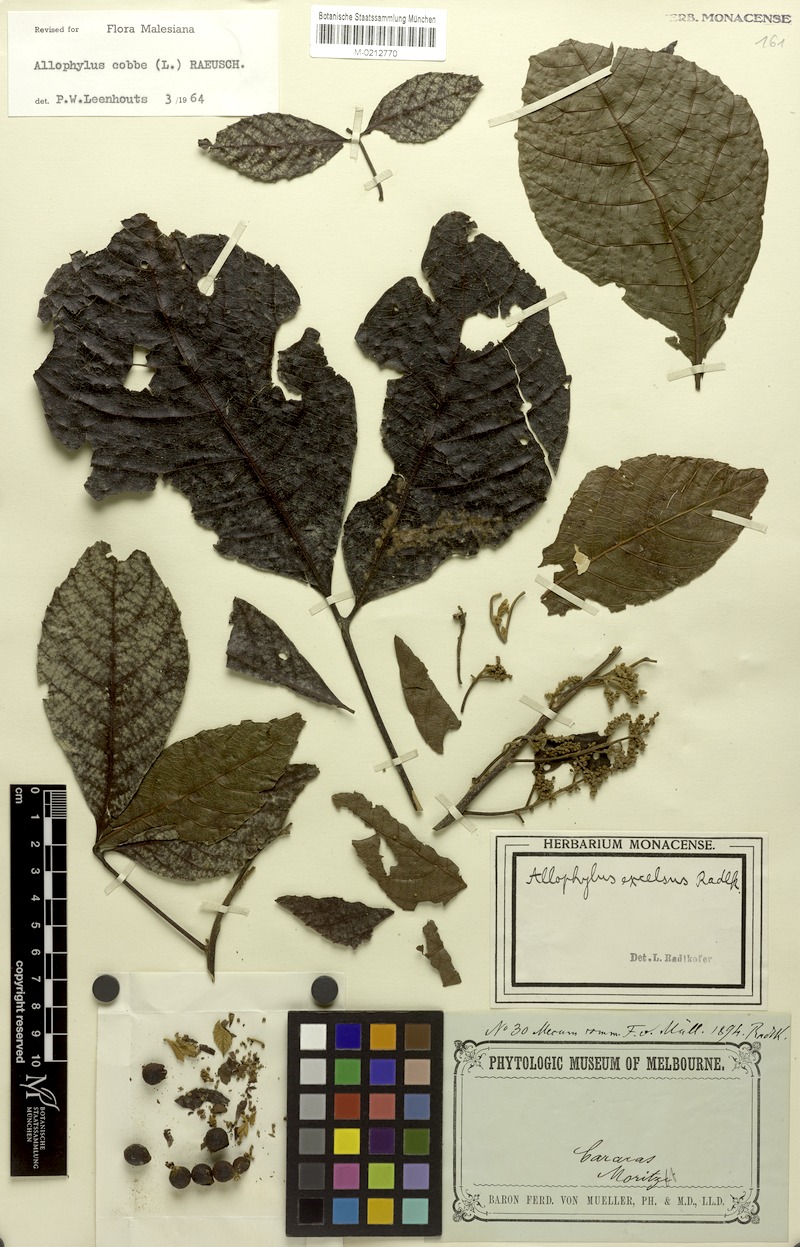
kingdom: Plantae
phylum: Tracheophyta
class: Magnoliopsida
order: Sapindales
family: Sapindaceae
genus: Allophylus
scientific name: Allophylus excelsus
